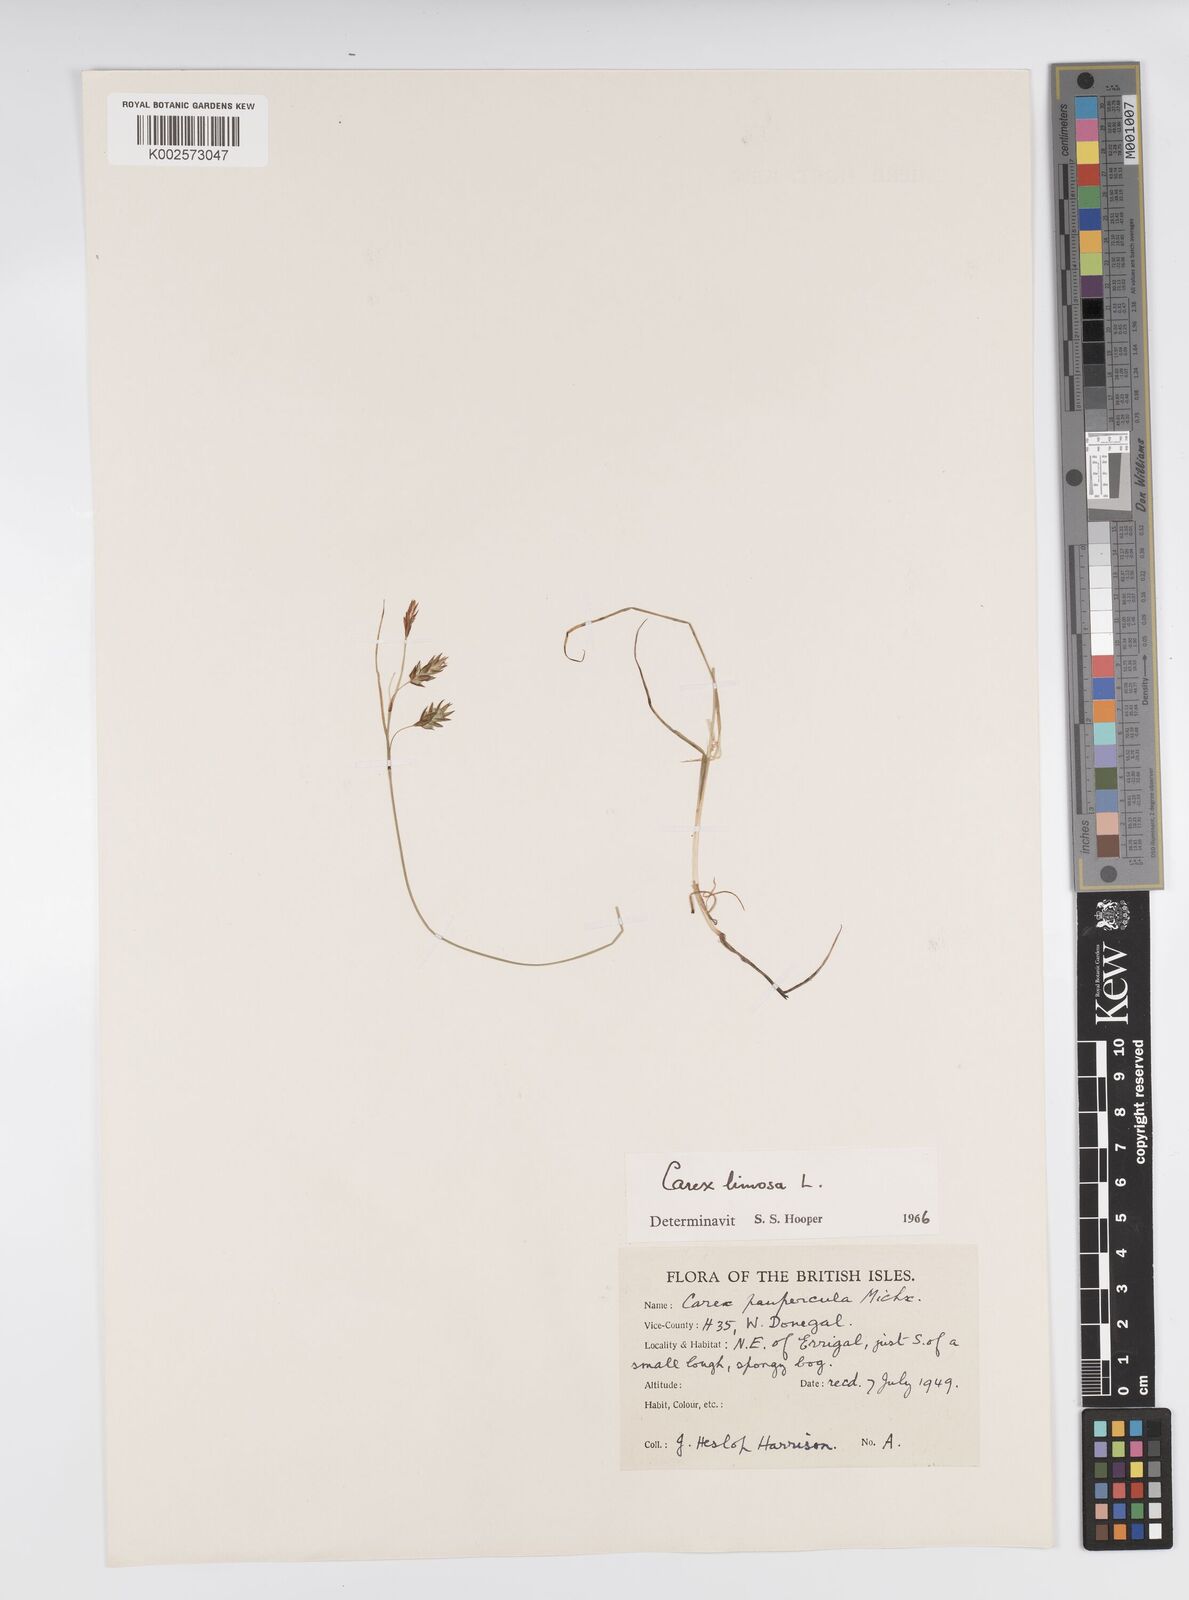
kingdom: Plantae
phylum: Tracheophyta
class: Liliopsida
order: Poales
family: Cyperaceae
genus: Carex
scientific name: Carex limosa
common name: Bog sedge
